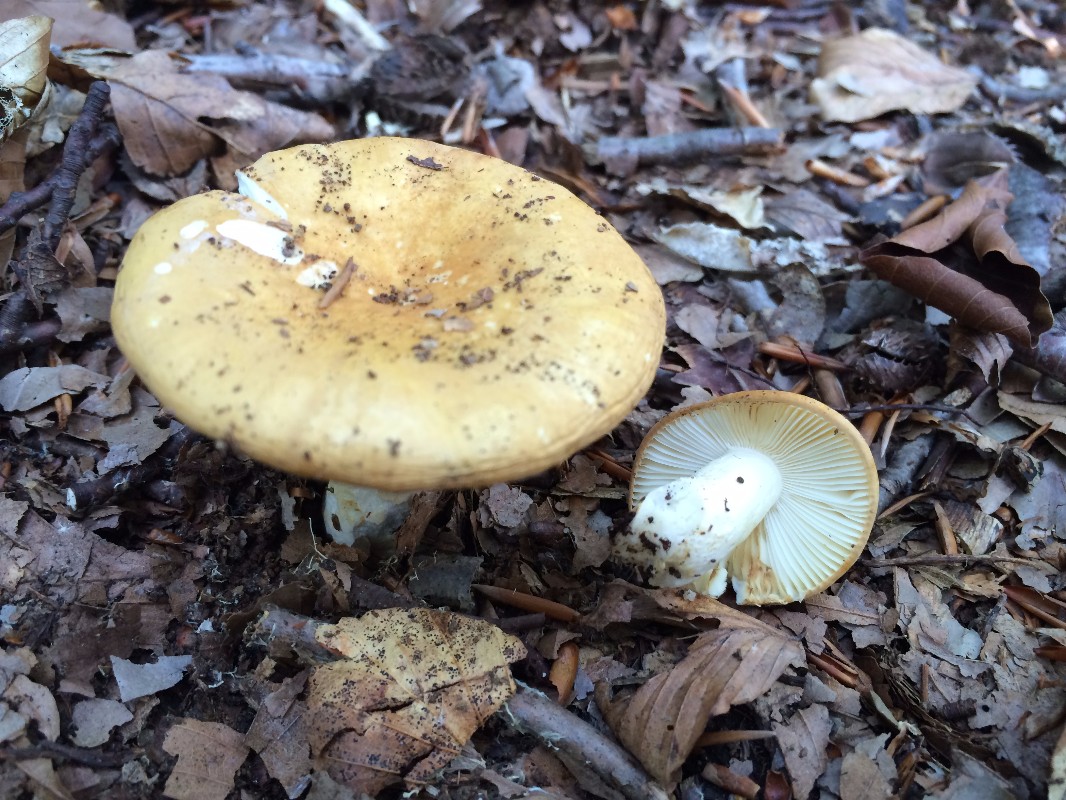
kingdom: Fungi
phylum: Basidiomycota
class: Agaricomycetes
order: Russulales
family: Russulaceae
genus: Russula
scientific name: Russula ochroleuca
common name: okkergul skørhat
